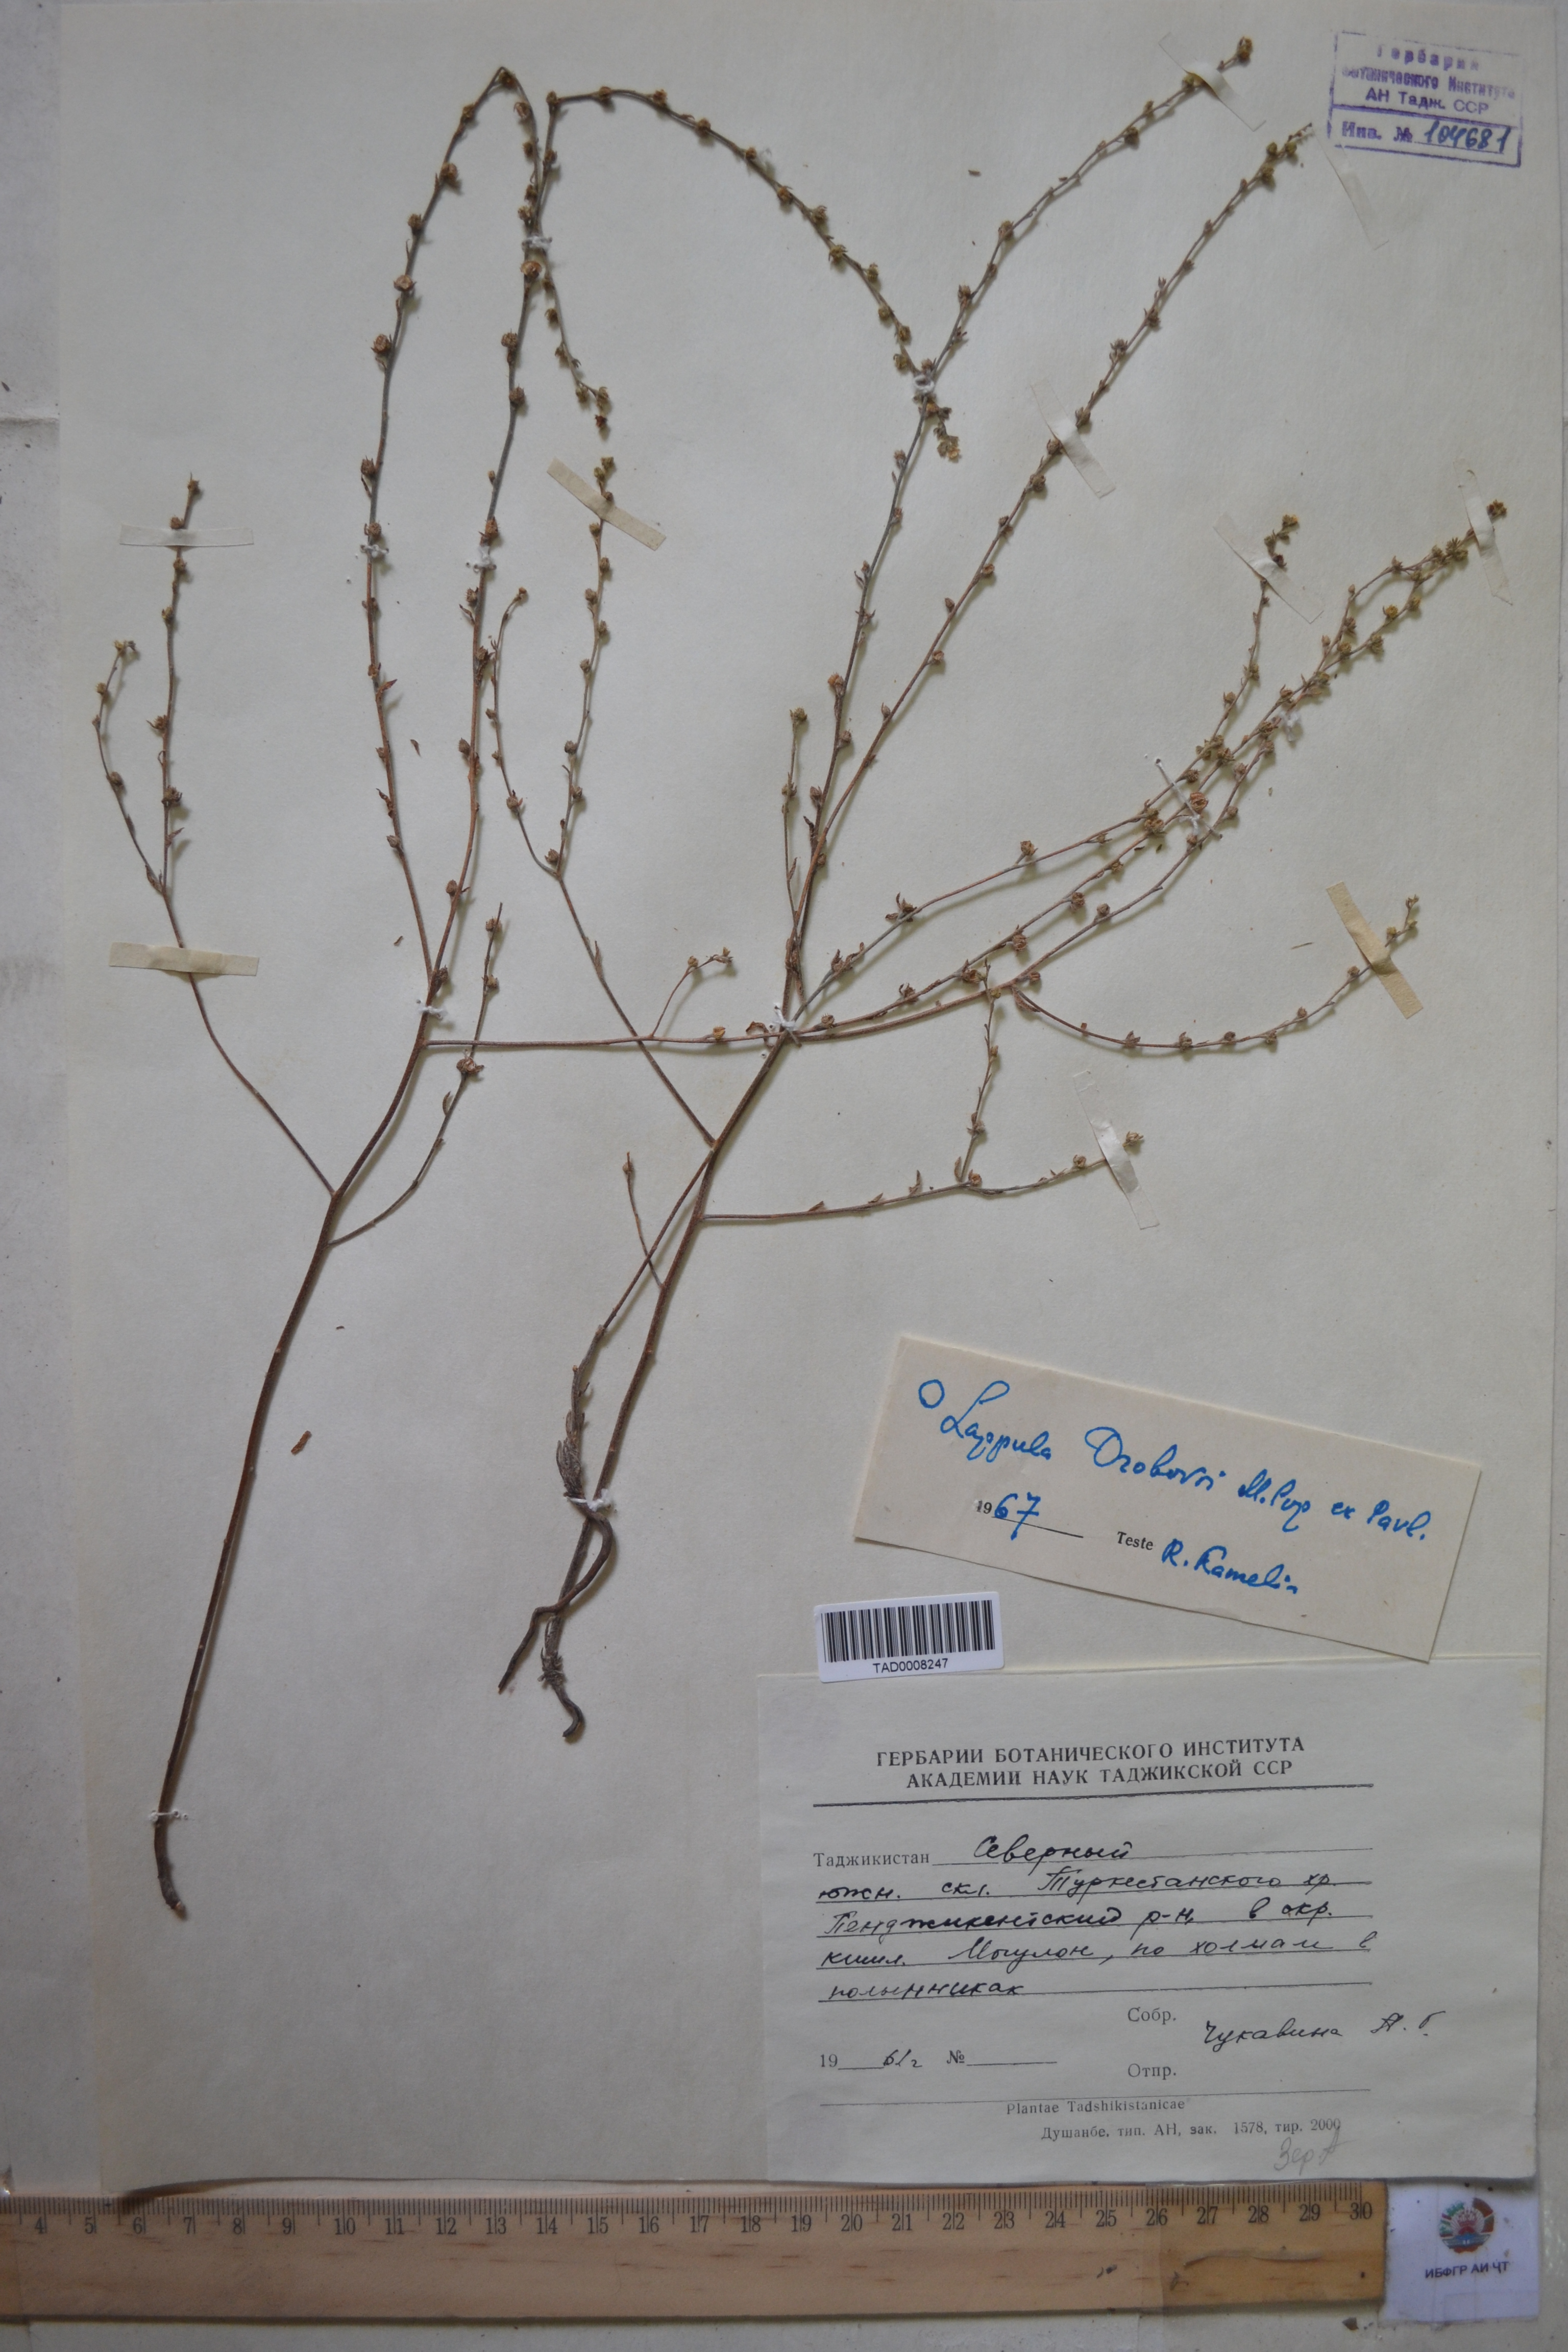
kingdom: Plantae
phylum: Tracheophyta
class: Magnoliopsida
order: Boraginales
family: Boraginaceae
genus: Rochelia
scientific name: Rochelia drobovii
